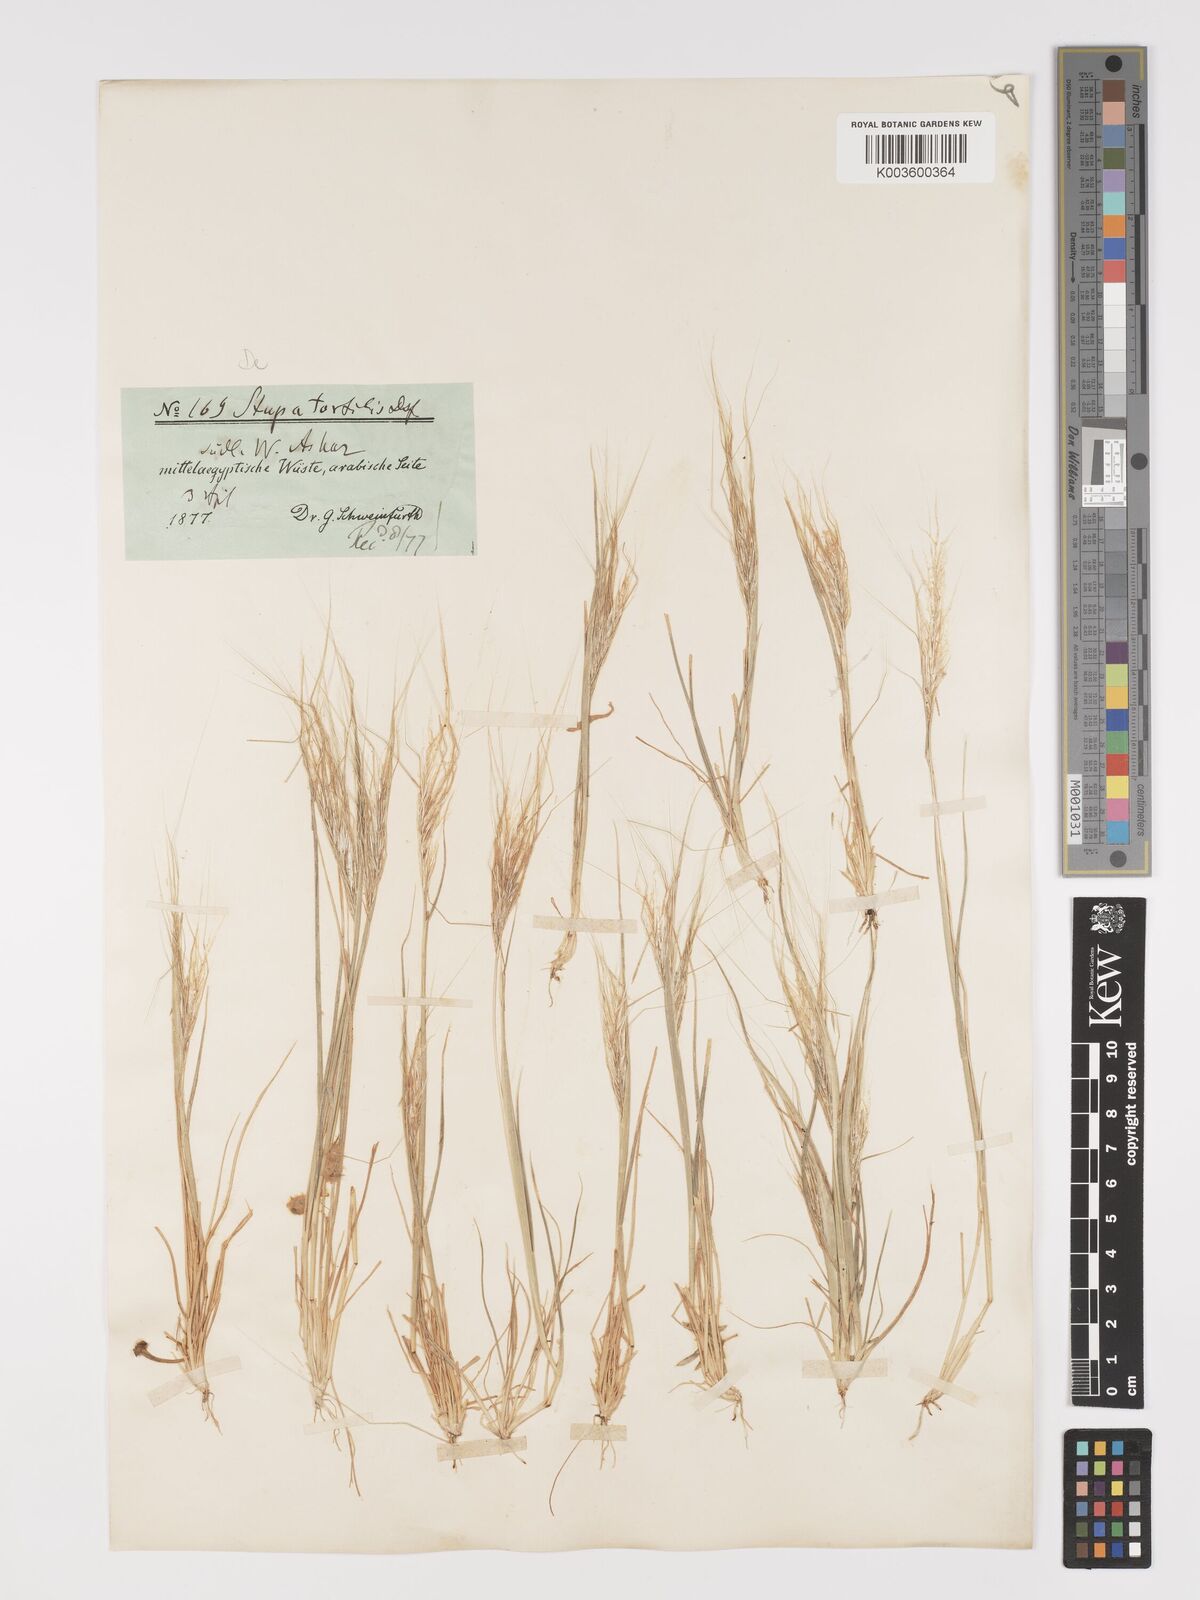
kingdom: Plantae
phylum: Tracheophyta
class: Liliopsida
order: Poales
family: Poaceae
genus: Stipellula
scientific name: Stipellula capensis
